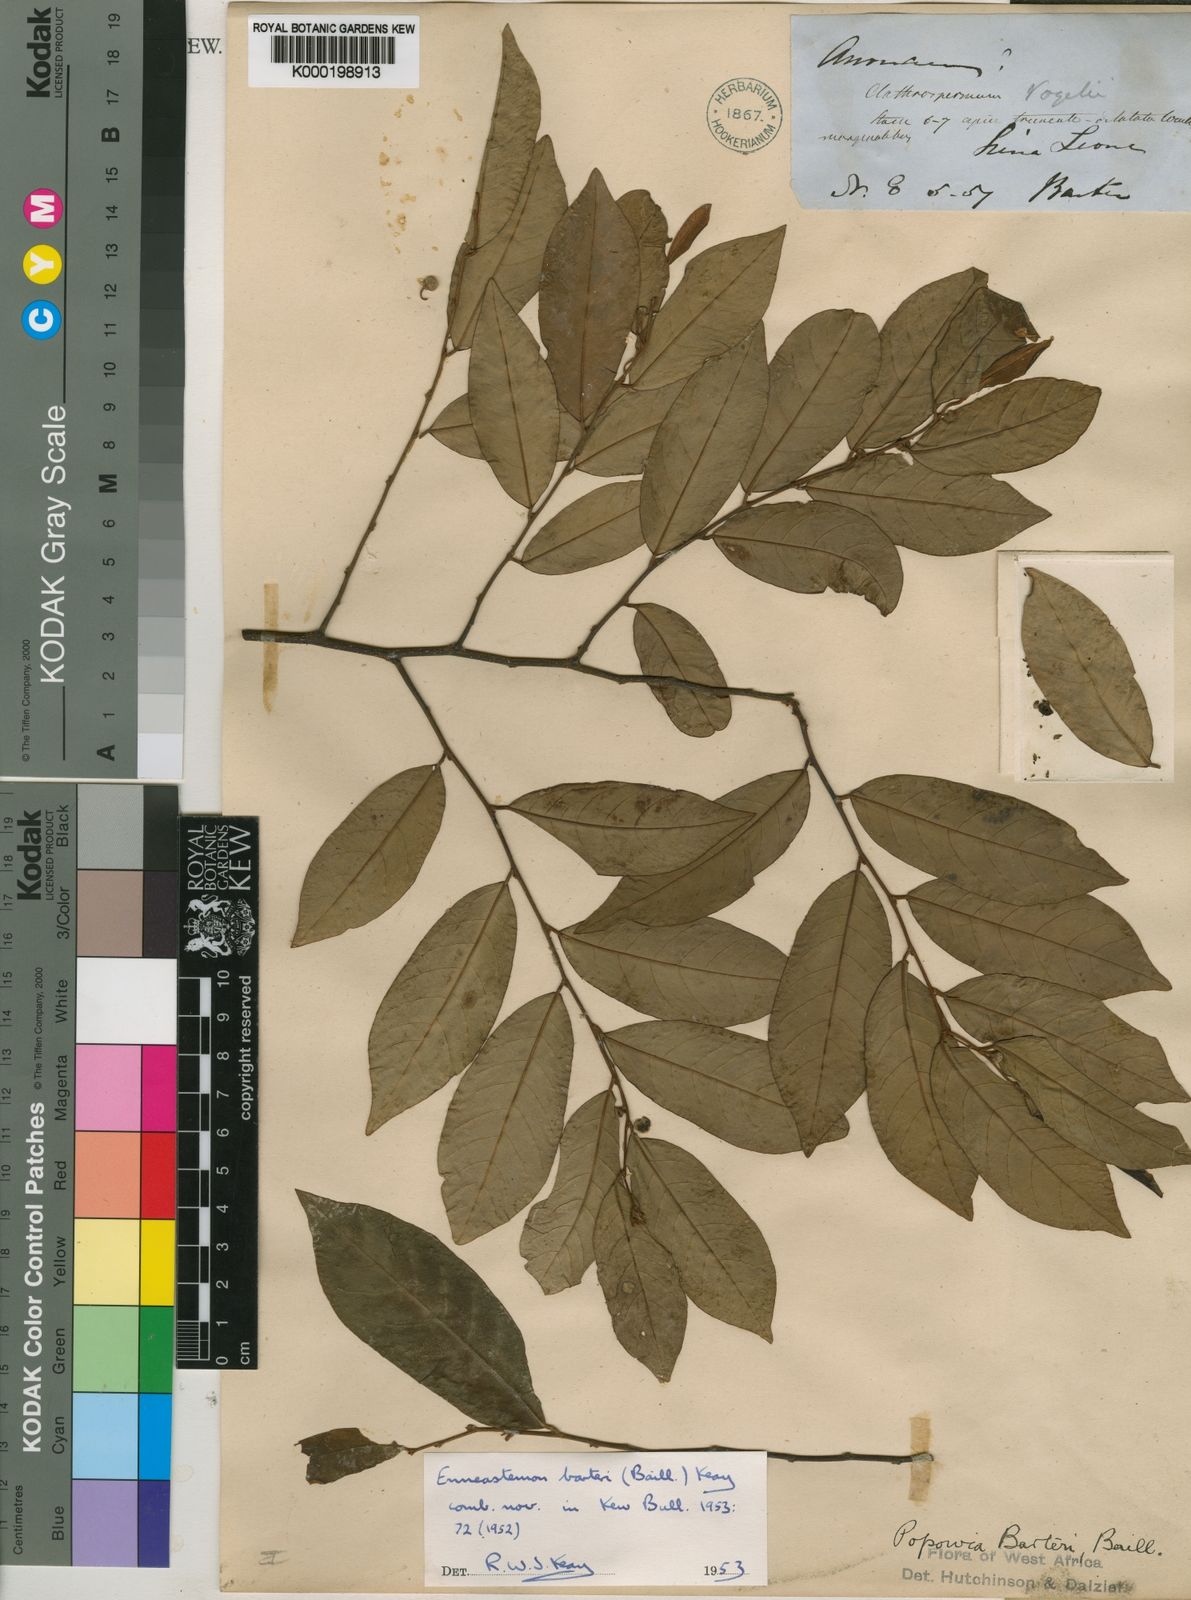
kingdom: Plantae
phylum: Tracheophyta
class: Magnoliopsida
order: Magnoliales
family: Annonaceae
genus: Monanthotaxis
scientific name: Monanthotaxis barteri
